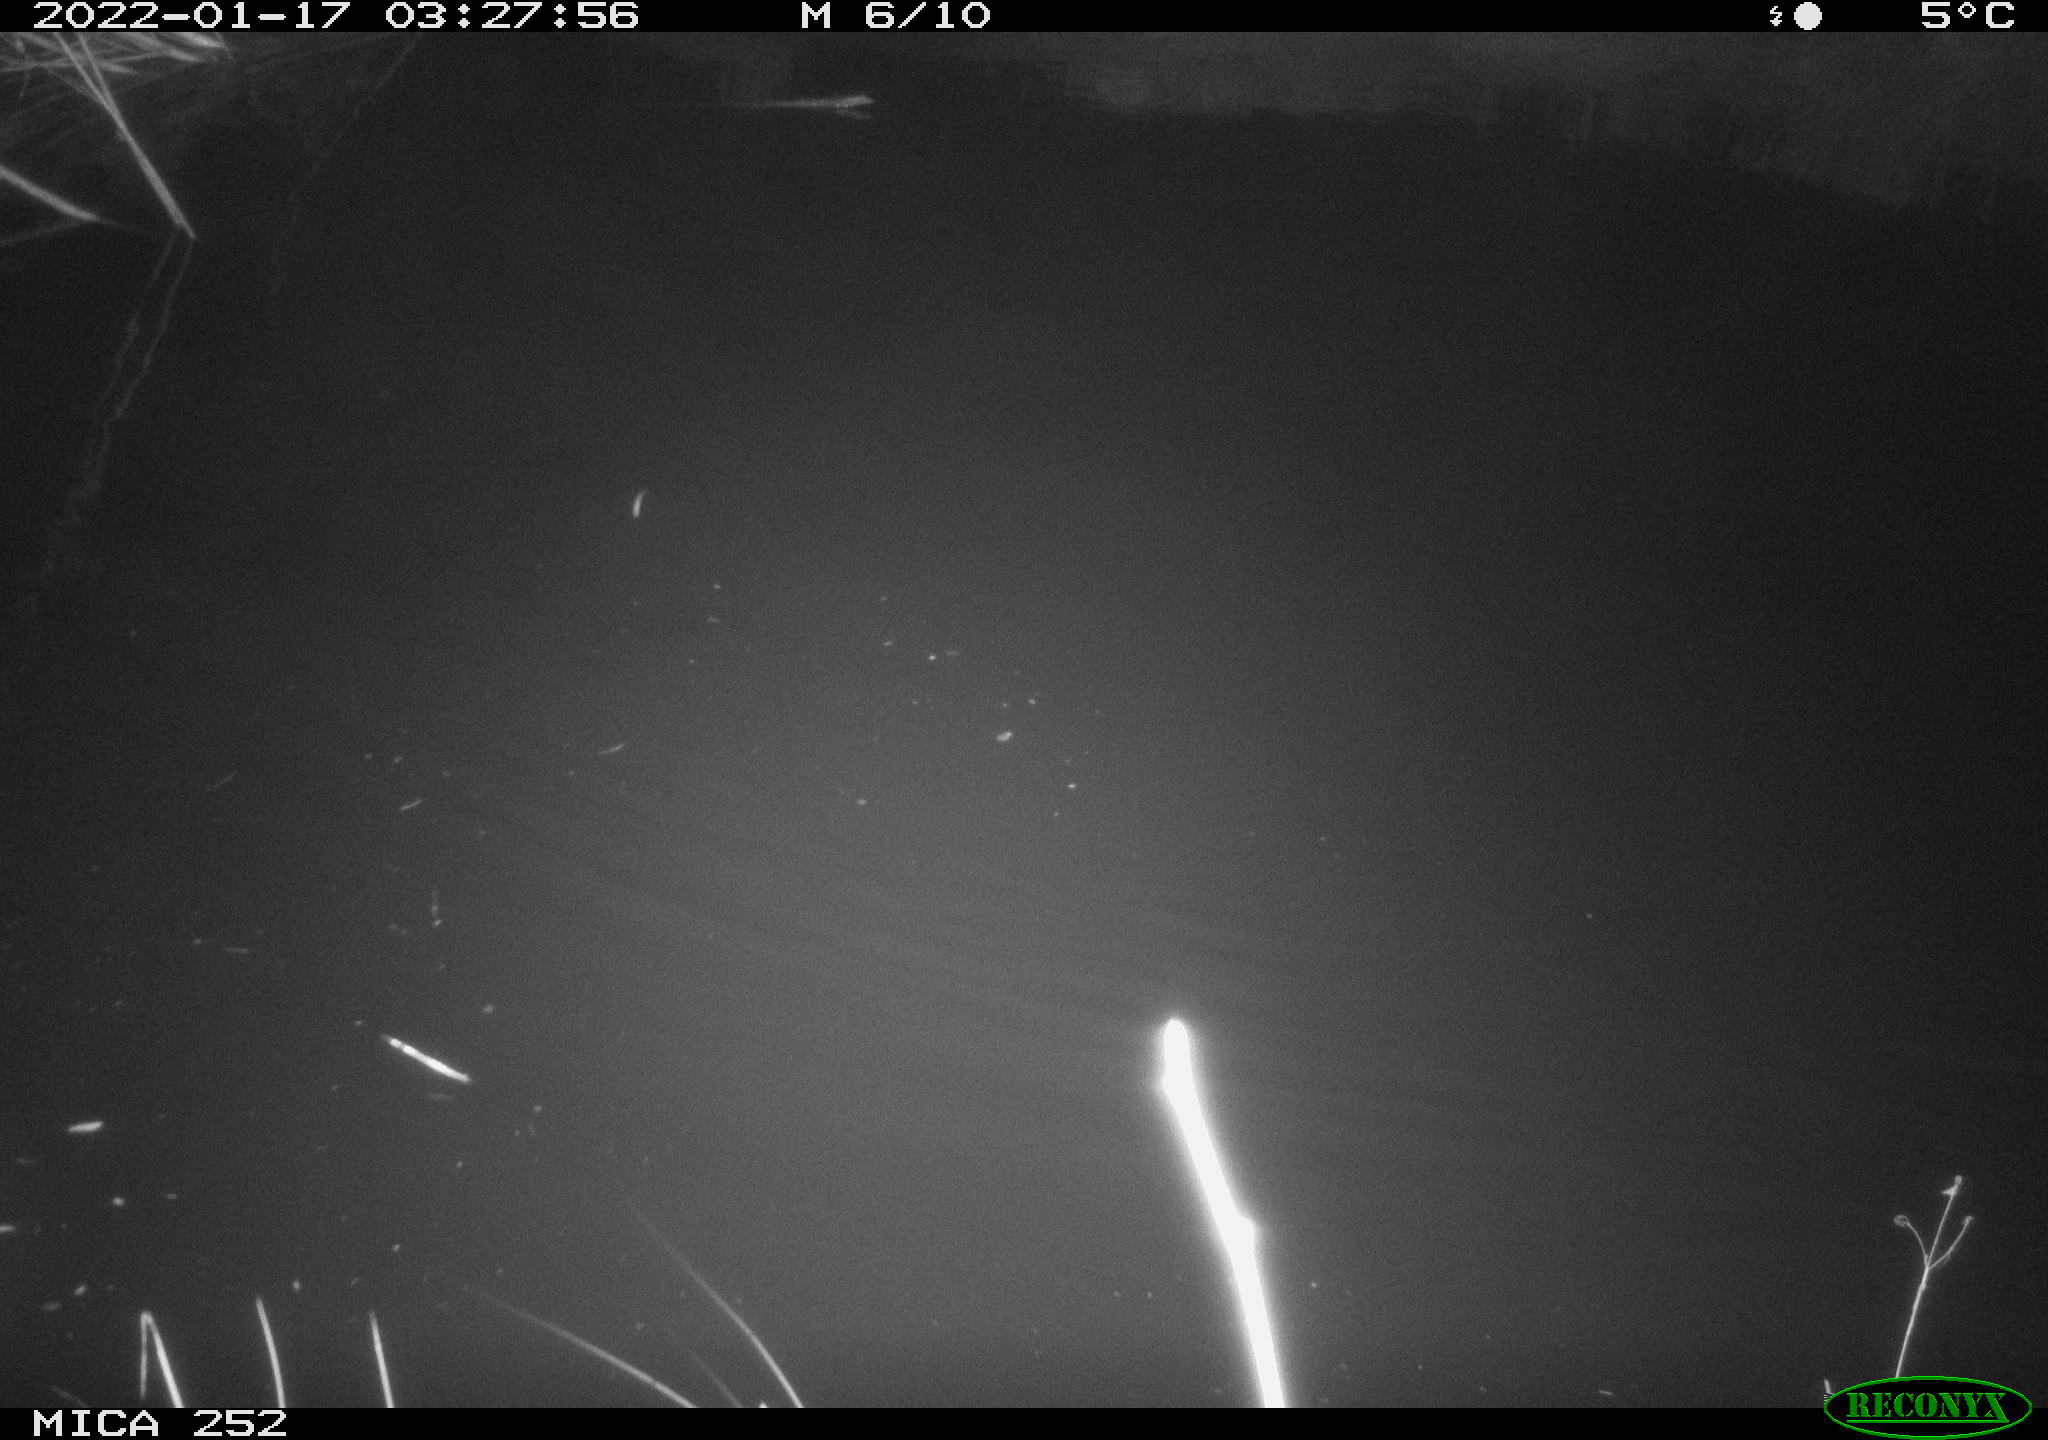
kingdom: Animalia
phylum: Chordata
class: Mammalia
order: Rodentia
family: Castoridae
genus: Castor
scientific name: Castor fiber
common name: Eurasian beaver
